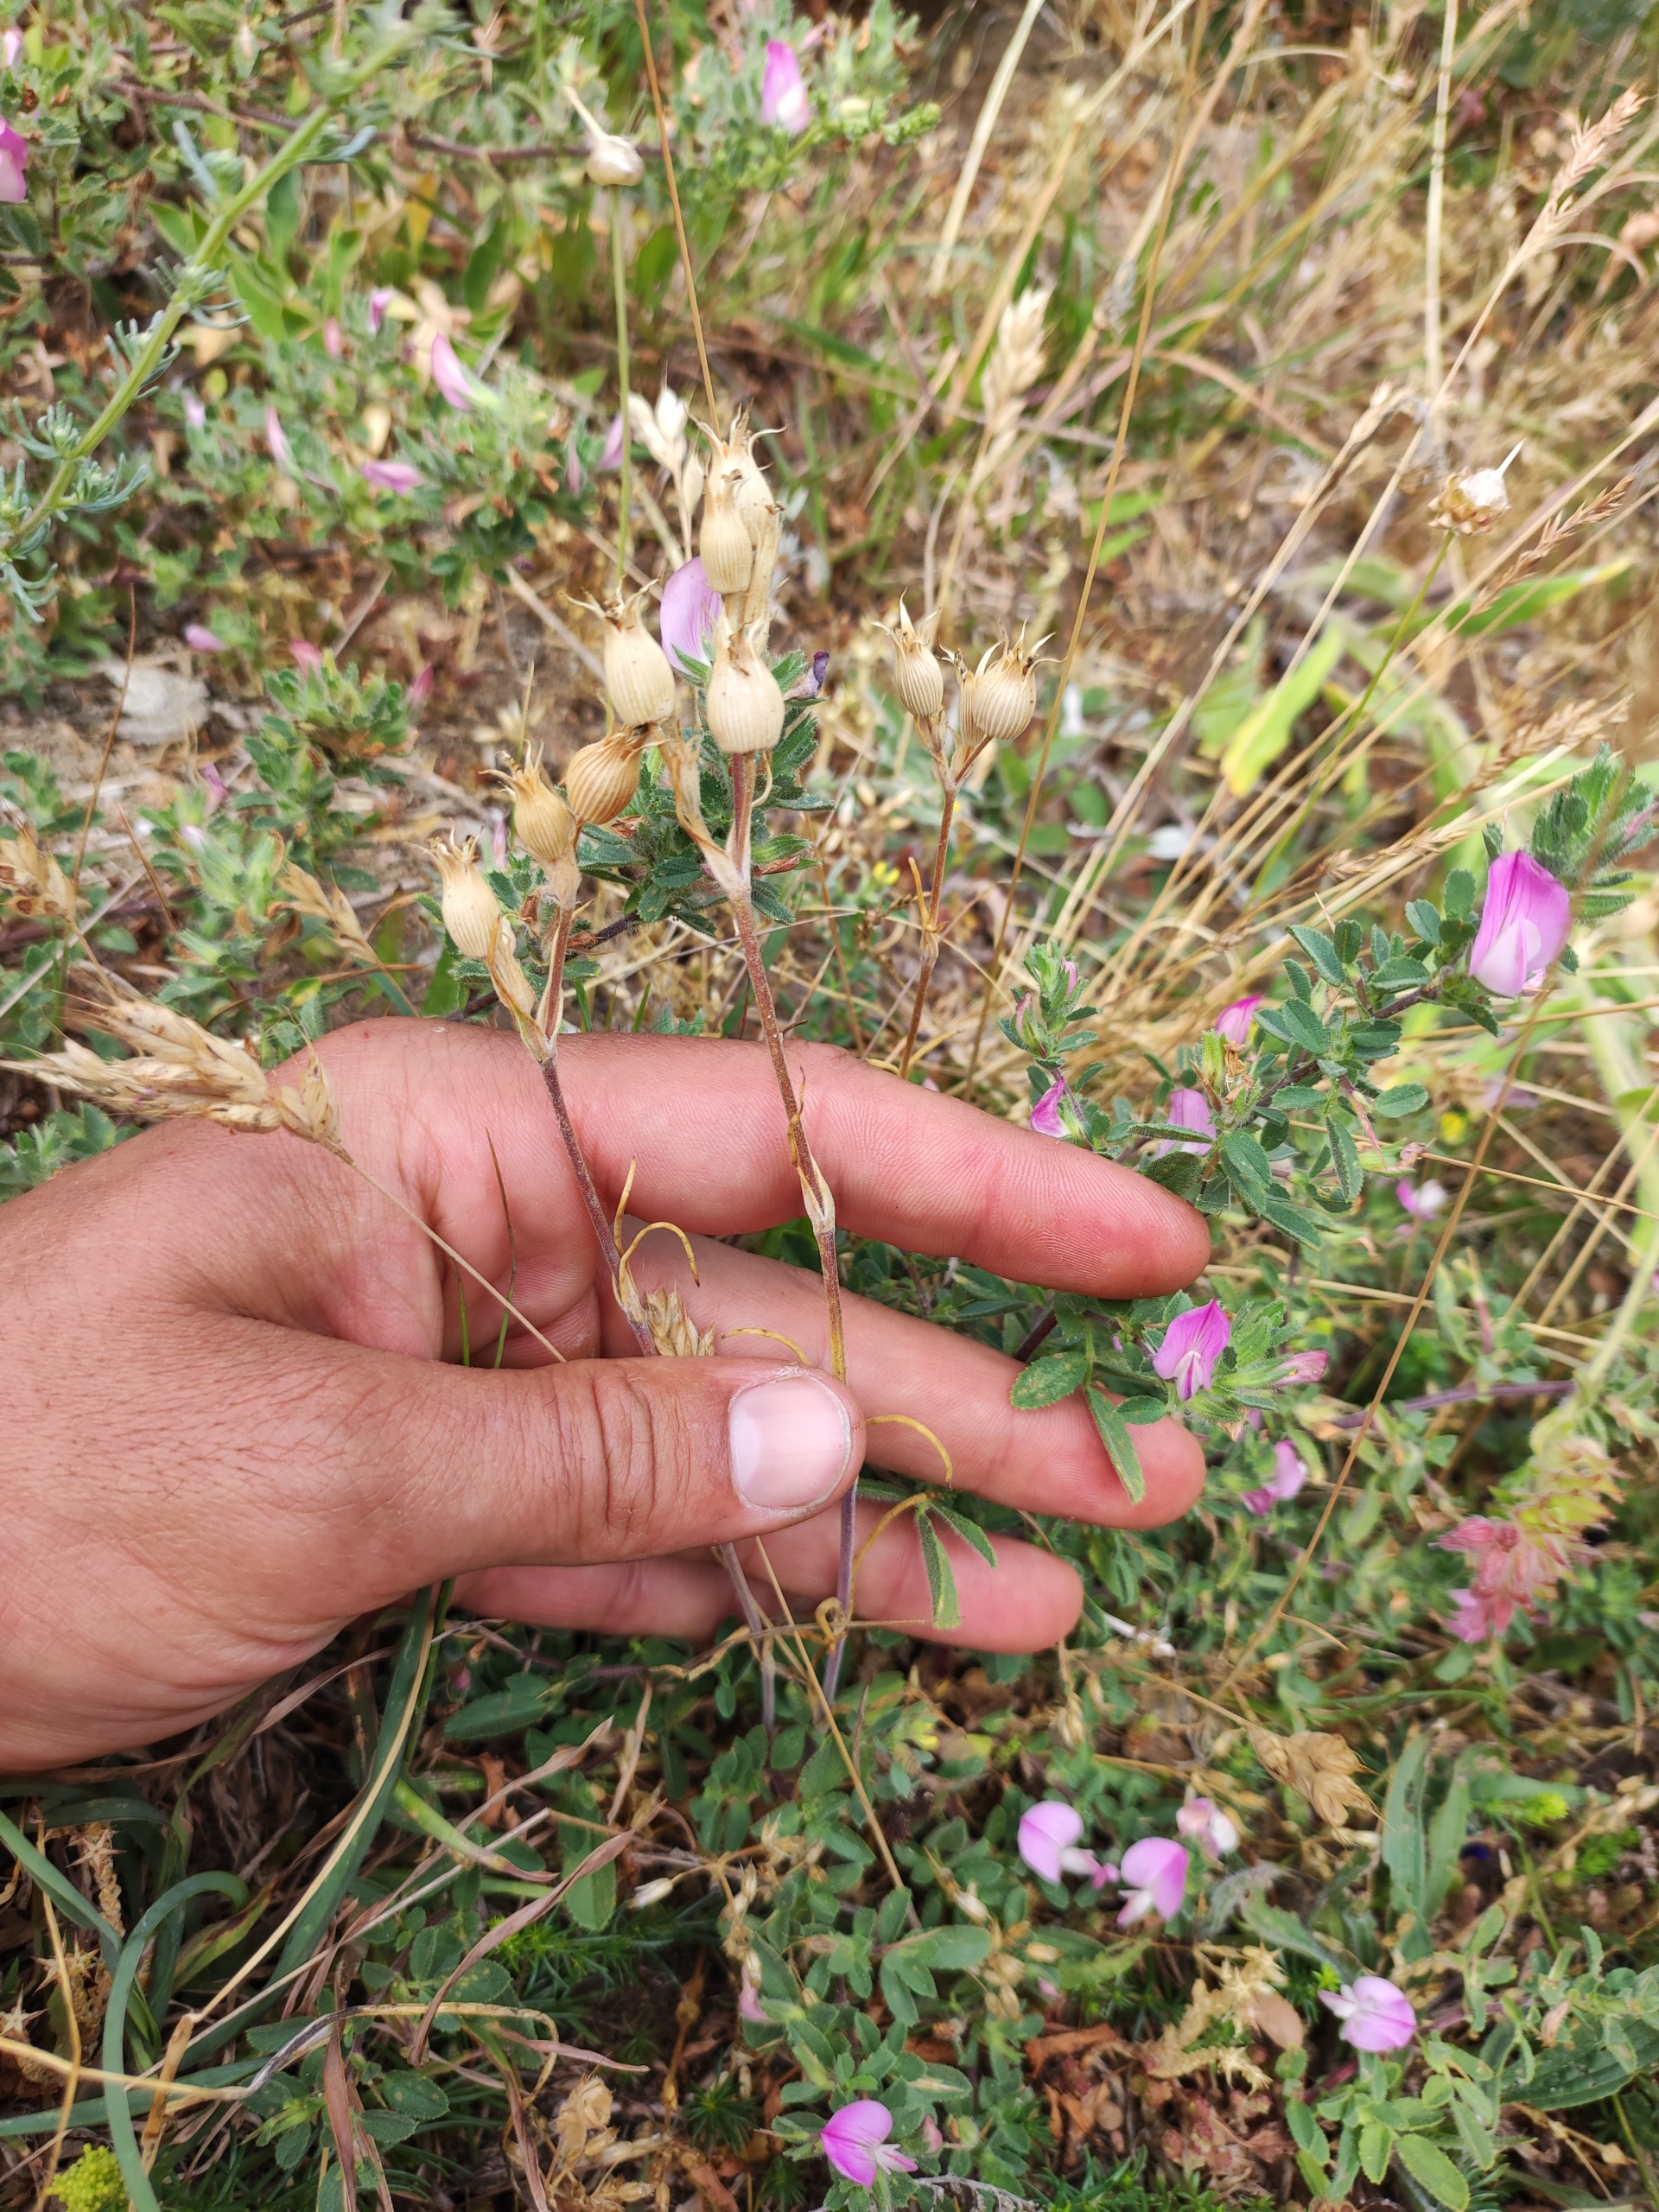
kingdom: Plantae
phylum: Tracheophyta
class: Magnoliopsida
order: Caryophyllales
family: Caryophyllaceae
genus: Silene
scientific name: Silene conica
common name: Kegle-limurt
